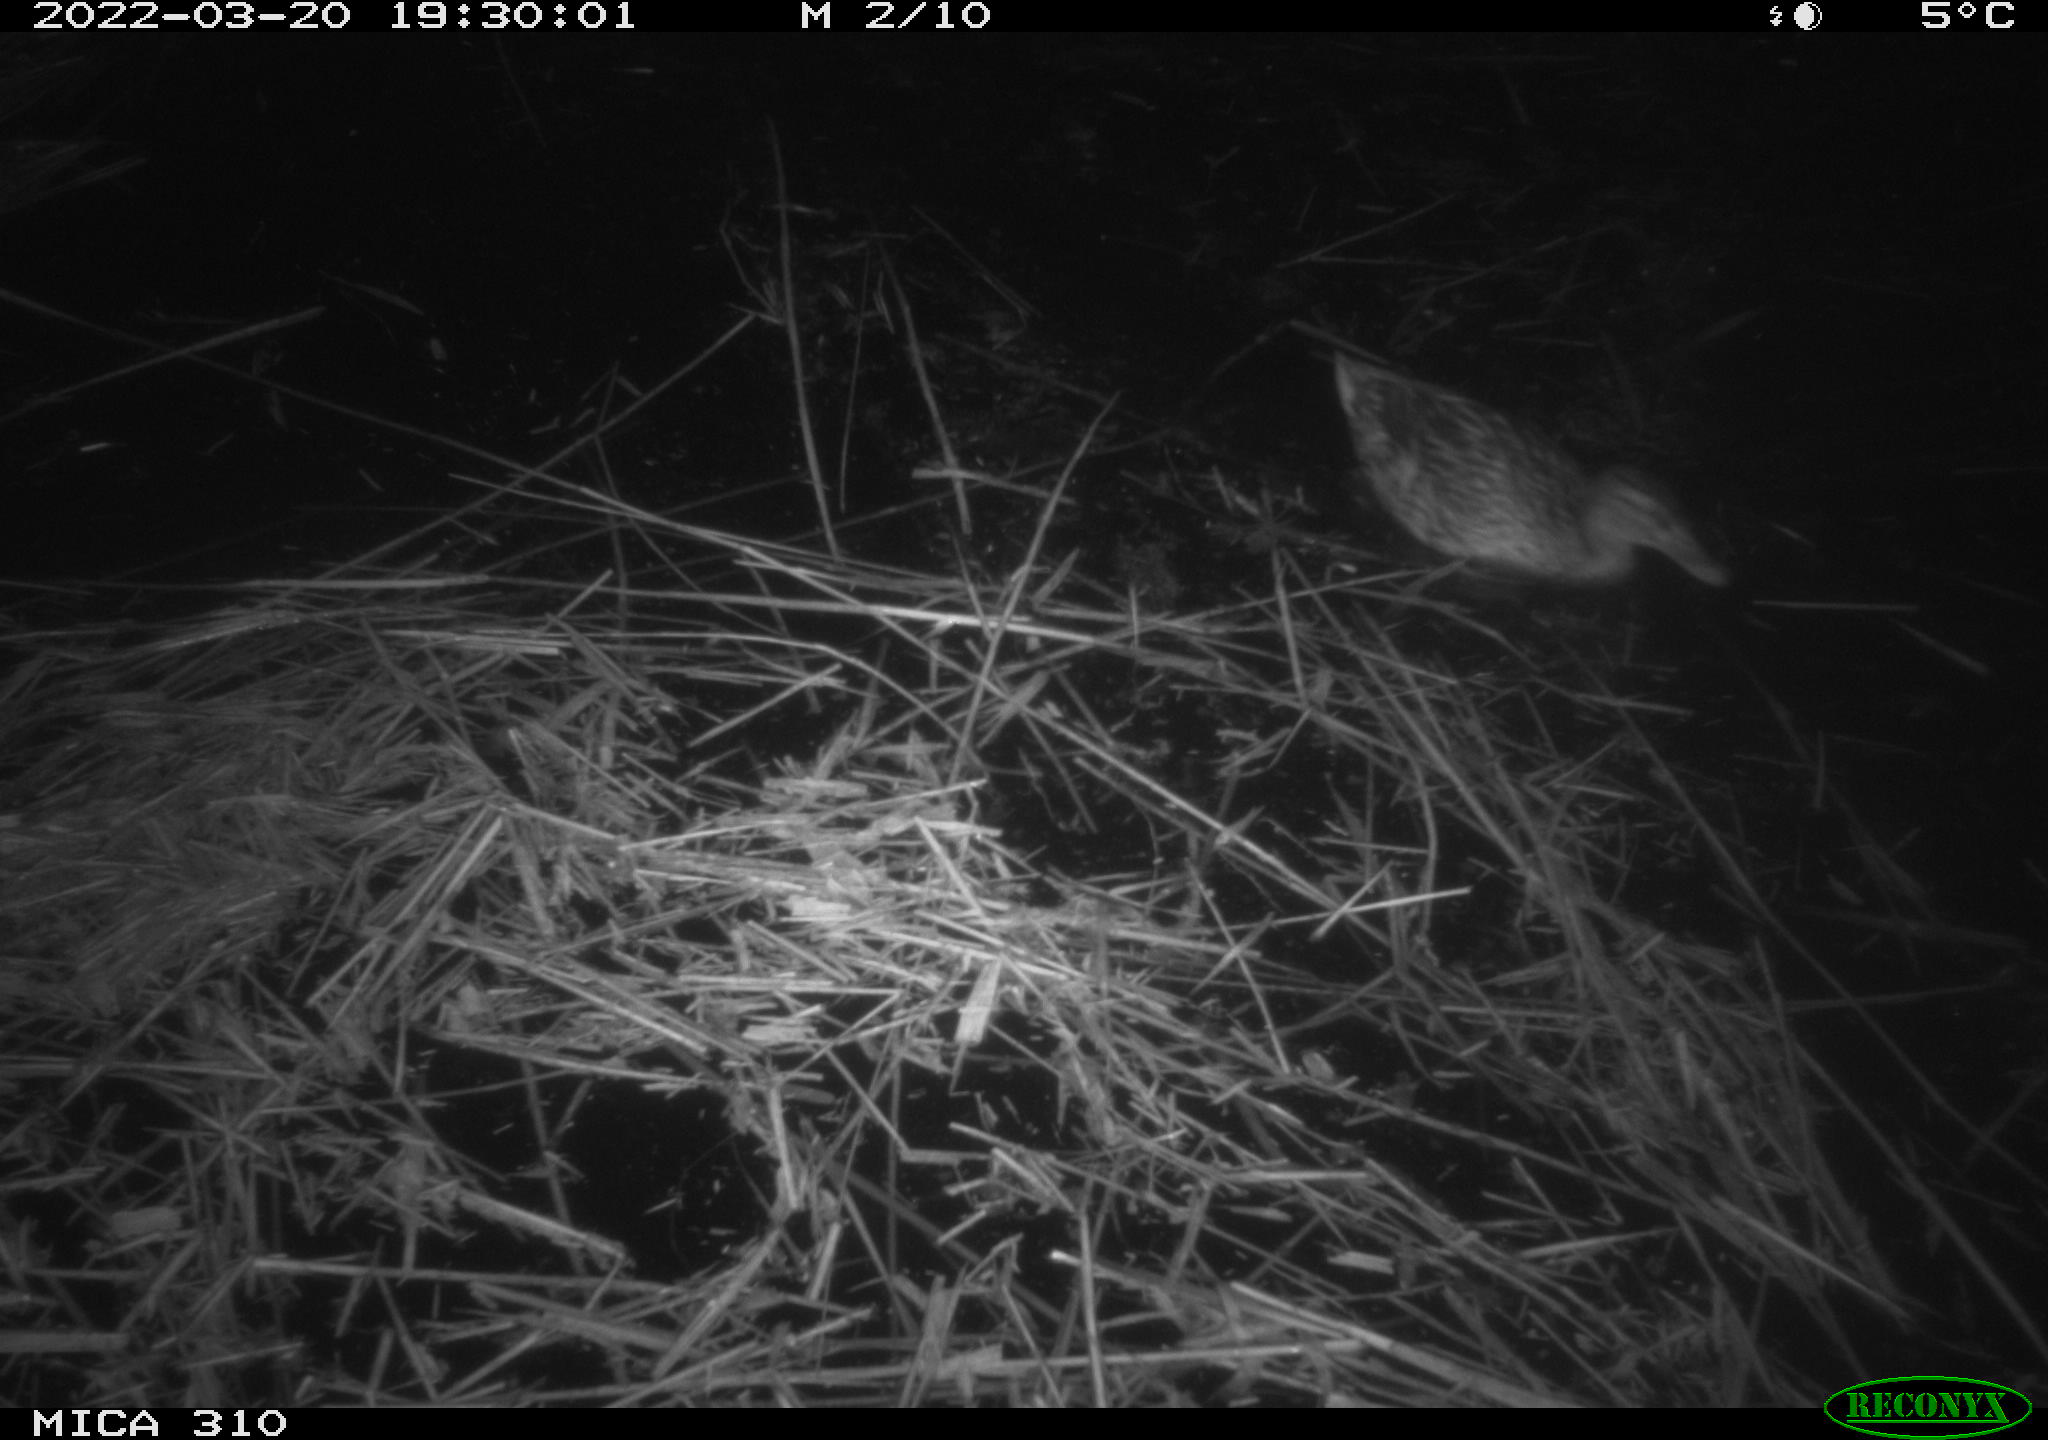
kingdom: Animalia
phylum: Chordata
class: Aves
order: Anseriformes
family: Anatidae
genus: Anas
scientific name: Anas platyrhynchos
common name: Mallard
